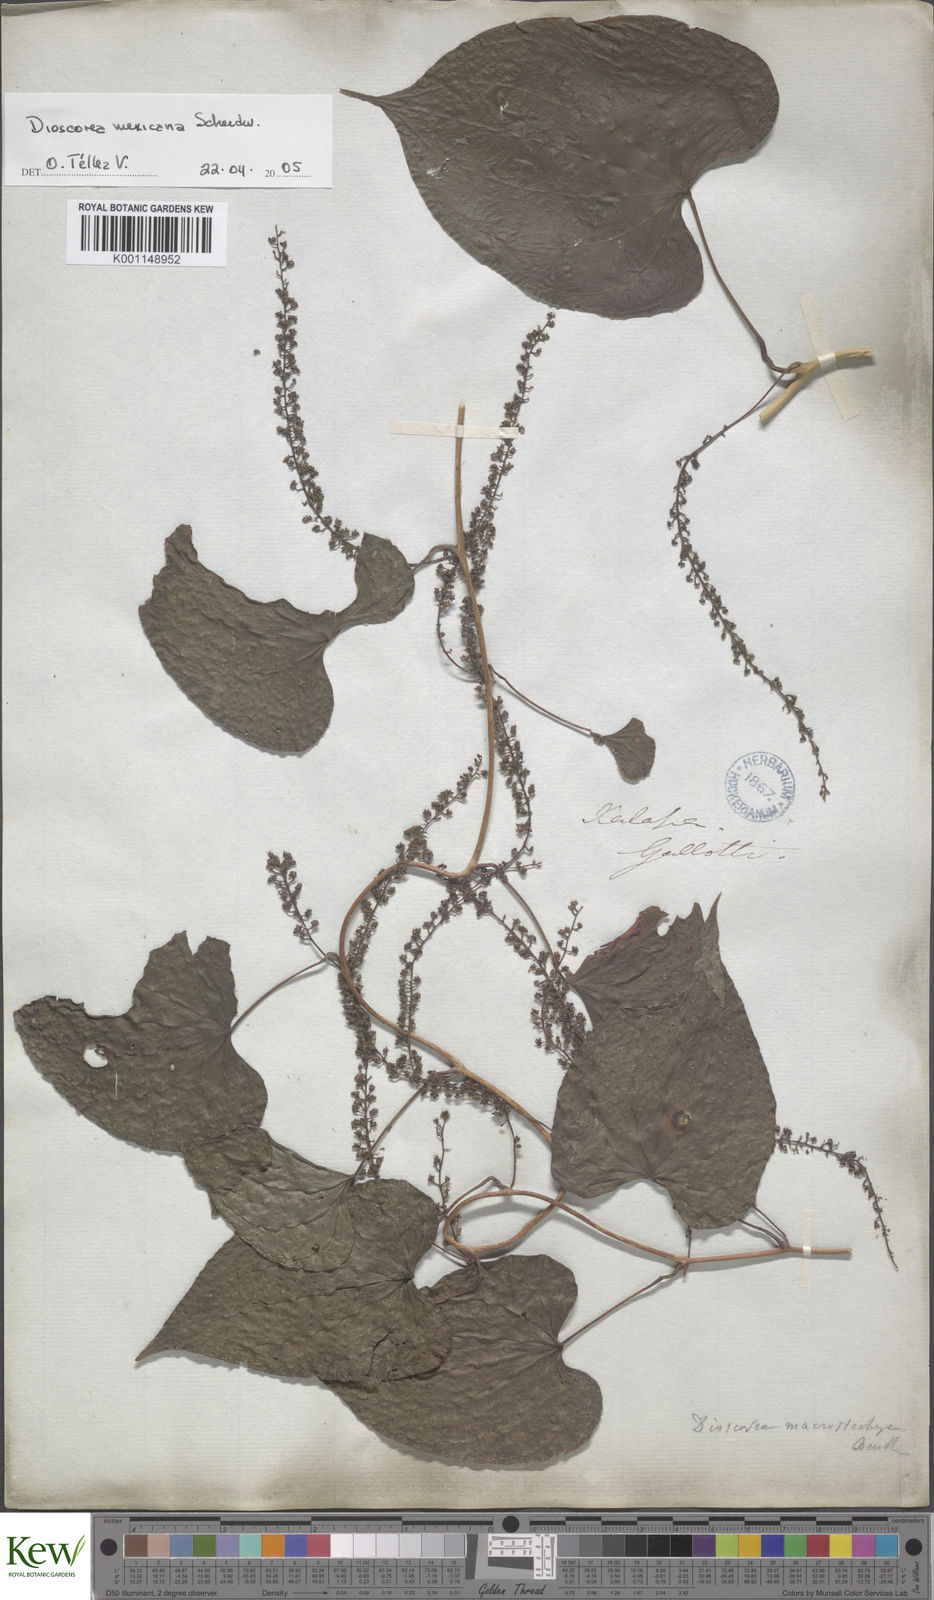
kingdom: Plantae
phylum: Tracheophyta
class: Liliopsida
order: Dioscoreales
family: Dioscoreaceae
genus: Dioscorea
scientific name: Dioscorea mexicana
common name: Mexican yam
